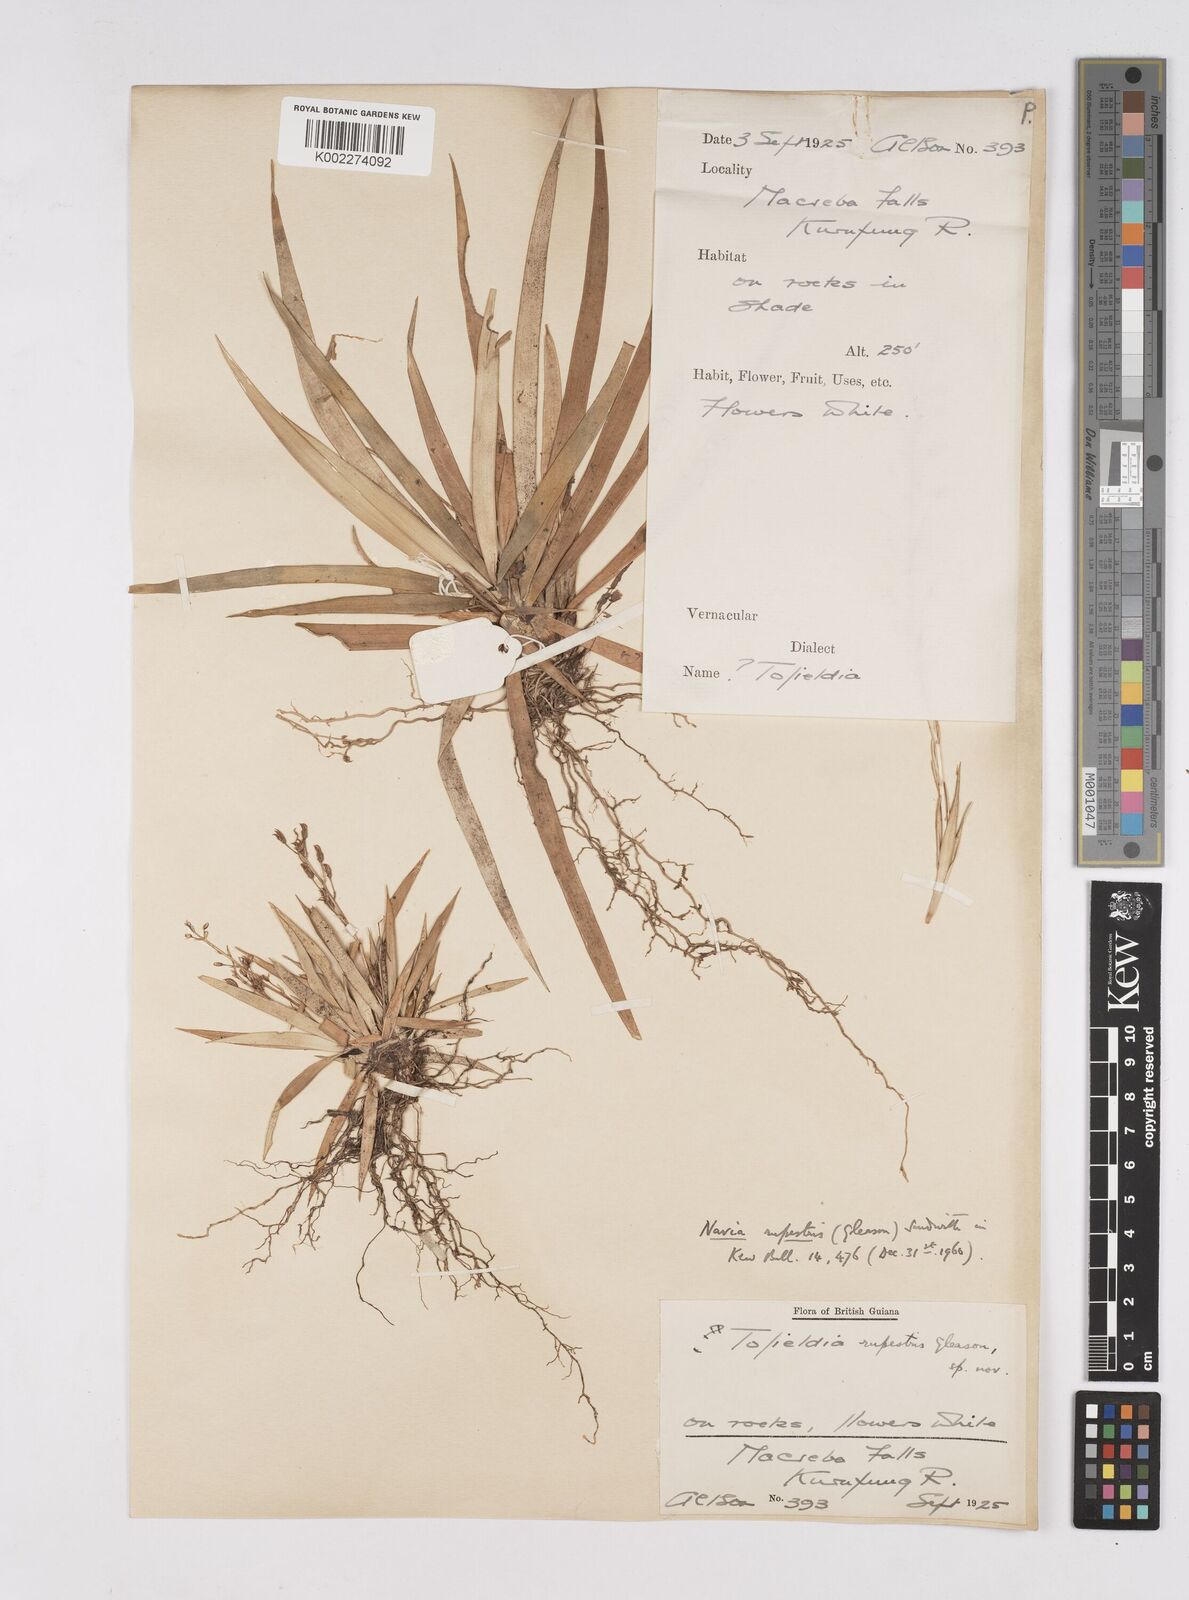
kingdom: Plantae
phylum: Tracheophyta
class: Liliopsida
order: Poales
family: Bromeliaceae
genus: Brocchinia
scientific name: Brocchinia rupestris
